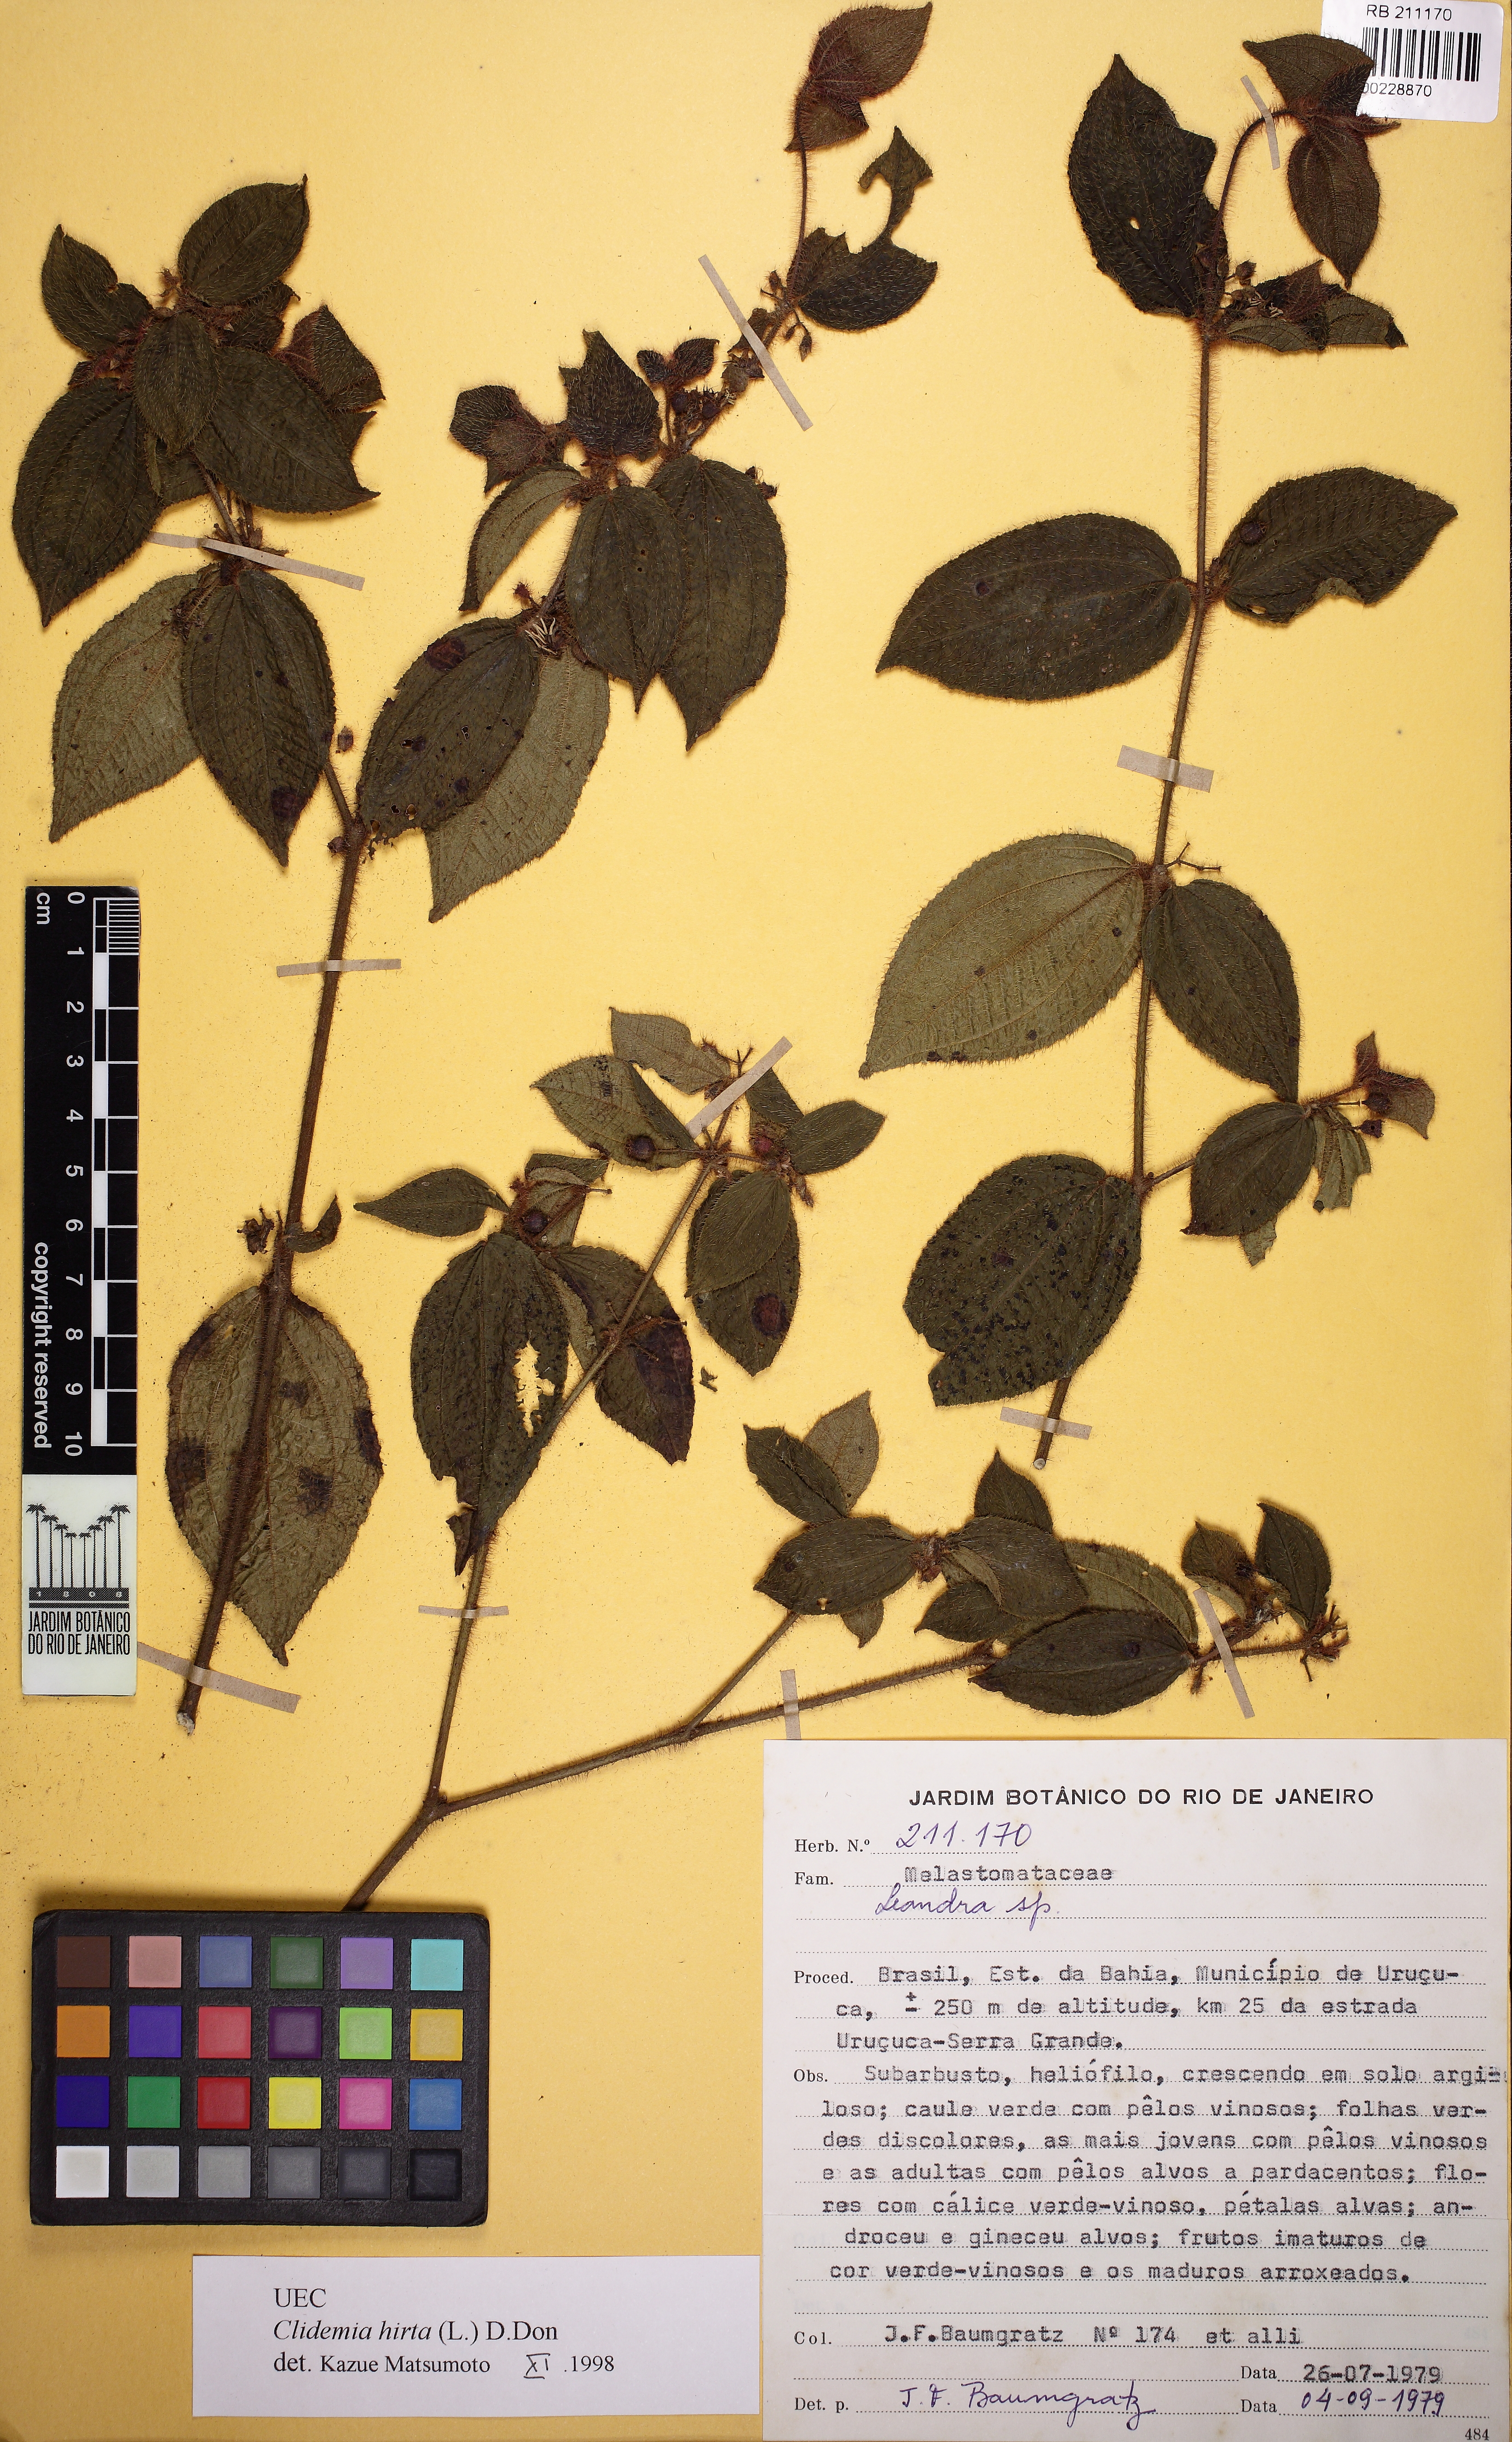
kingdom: Plantae
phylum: Tracheophyta
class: Magnoliopsida
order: Myrtales
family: Melastomataceae
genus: Miconia
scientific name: Miconia
